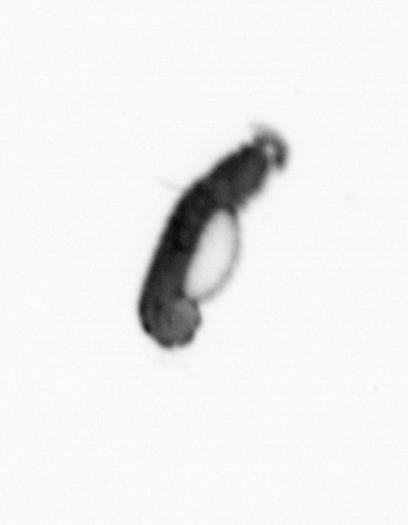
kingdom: Animalia
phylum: Annelida
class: Polychaeta
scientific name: Polychaeta
